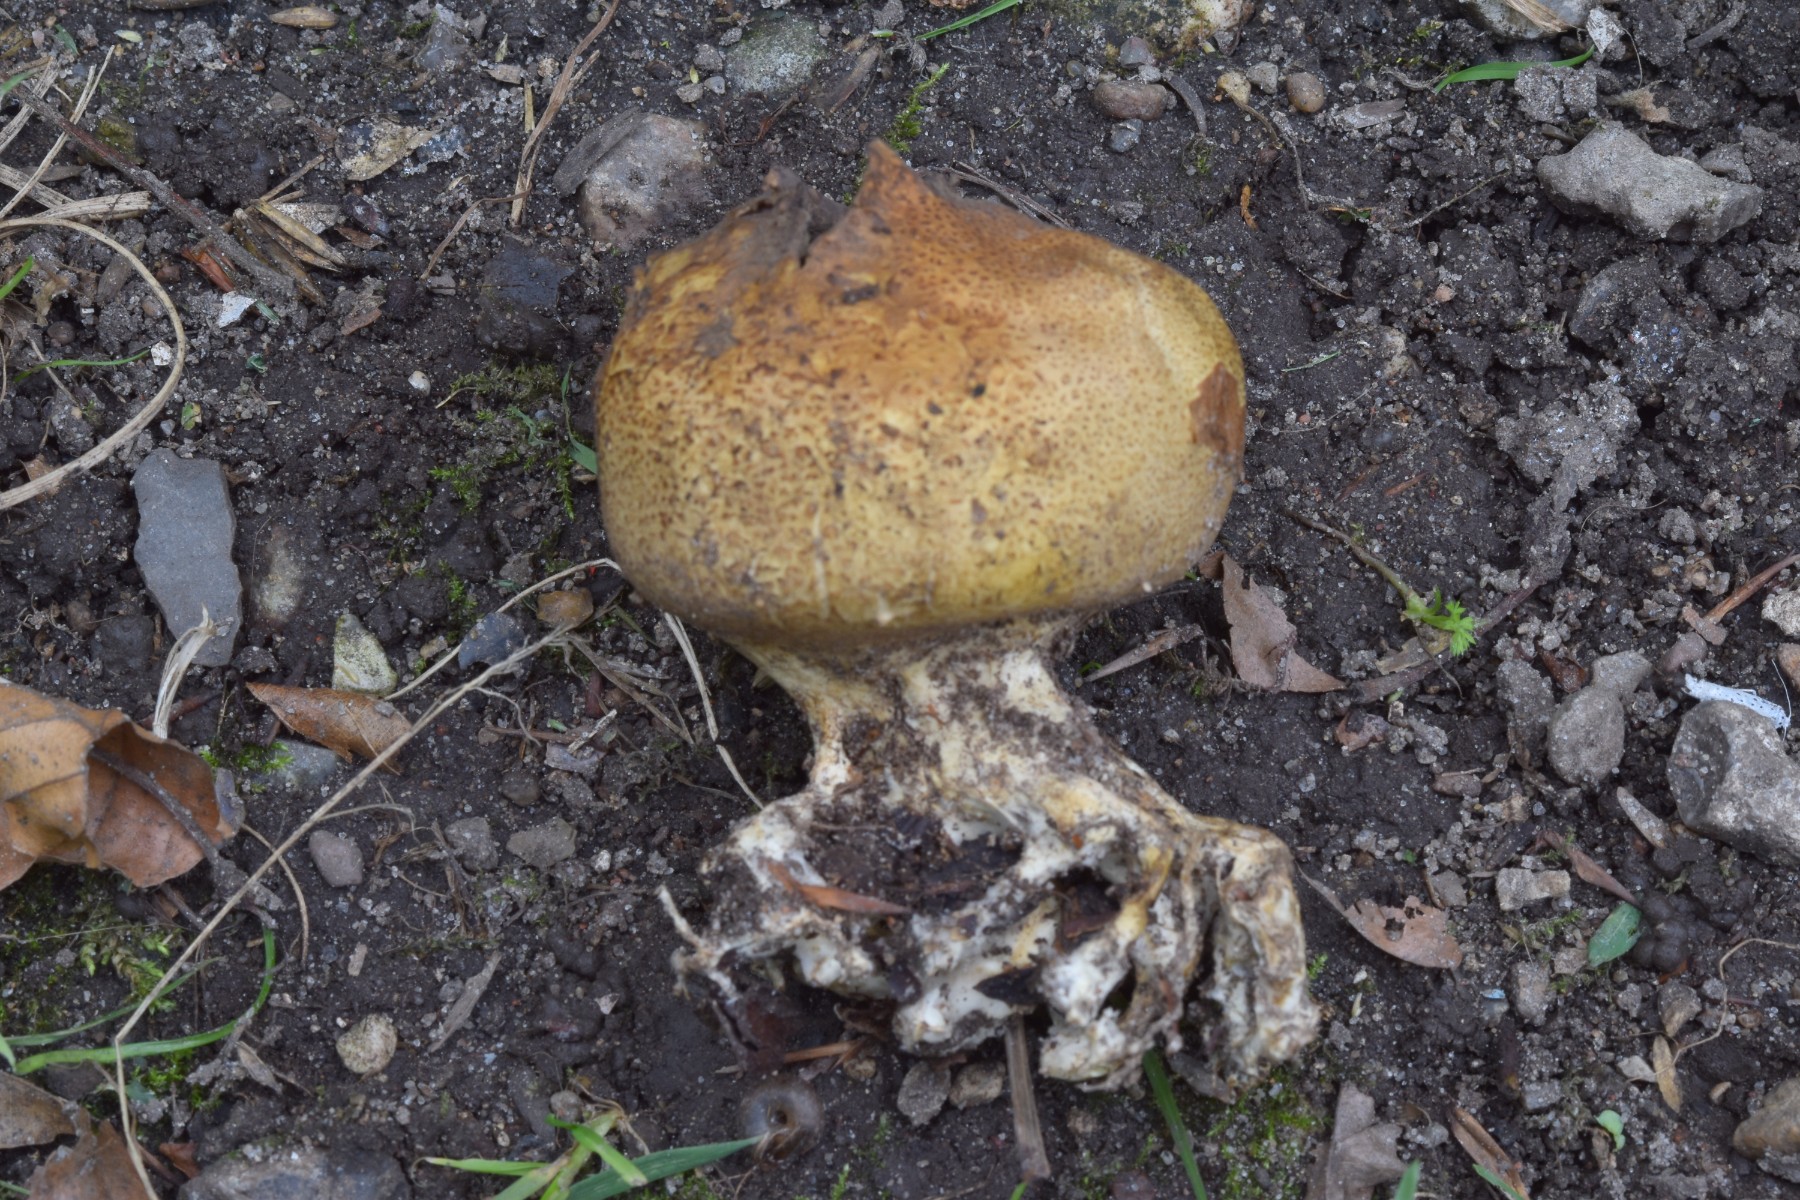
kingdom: Fungi
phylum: Basidiomycota
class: Agaricomycetes
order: Boletales
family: Sclerodermataceae
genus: Scleroderma
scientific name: Scleroderma verrucosum
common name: stilket bruskbold
